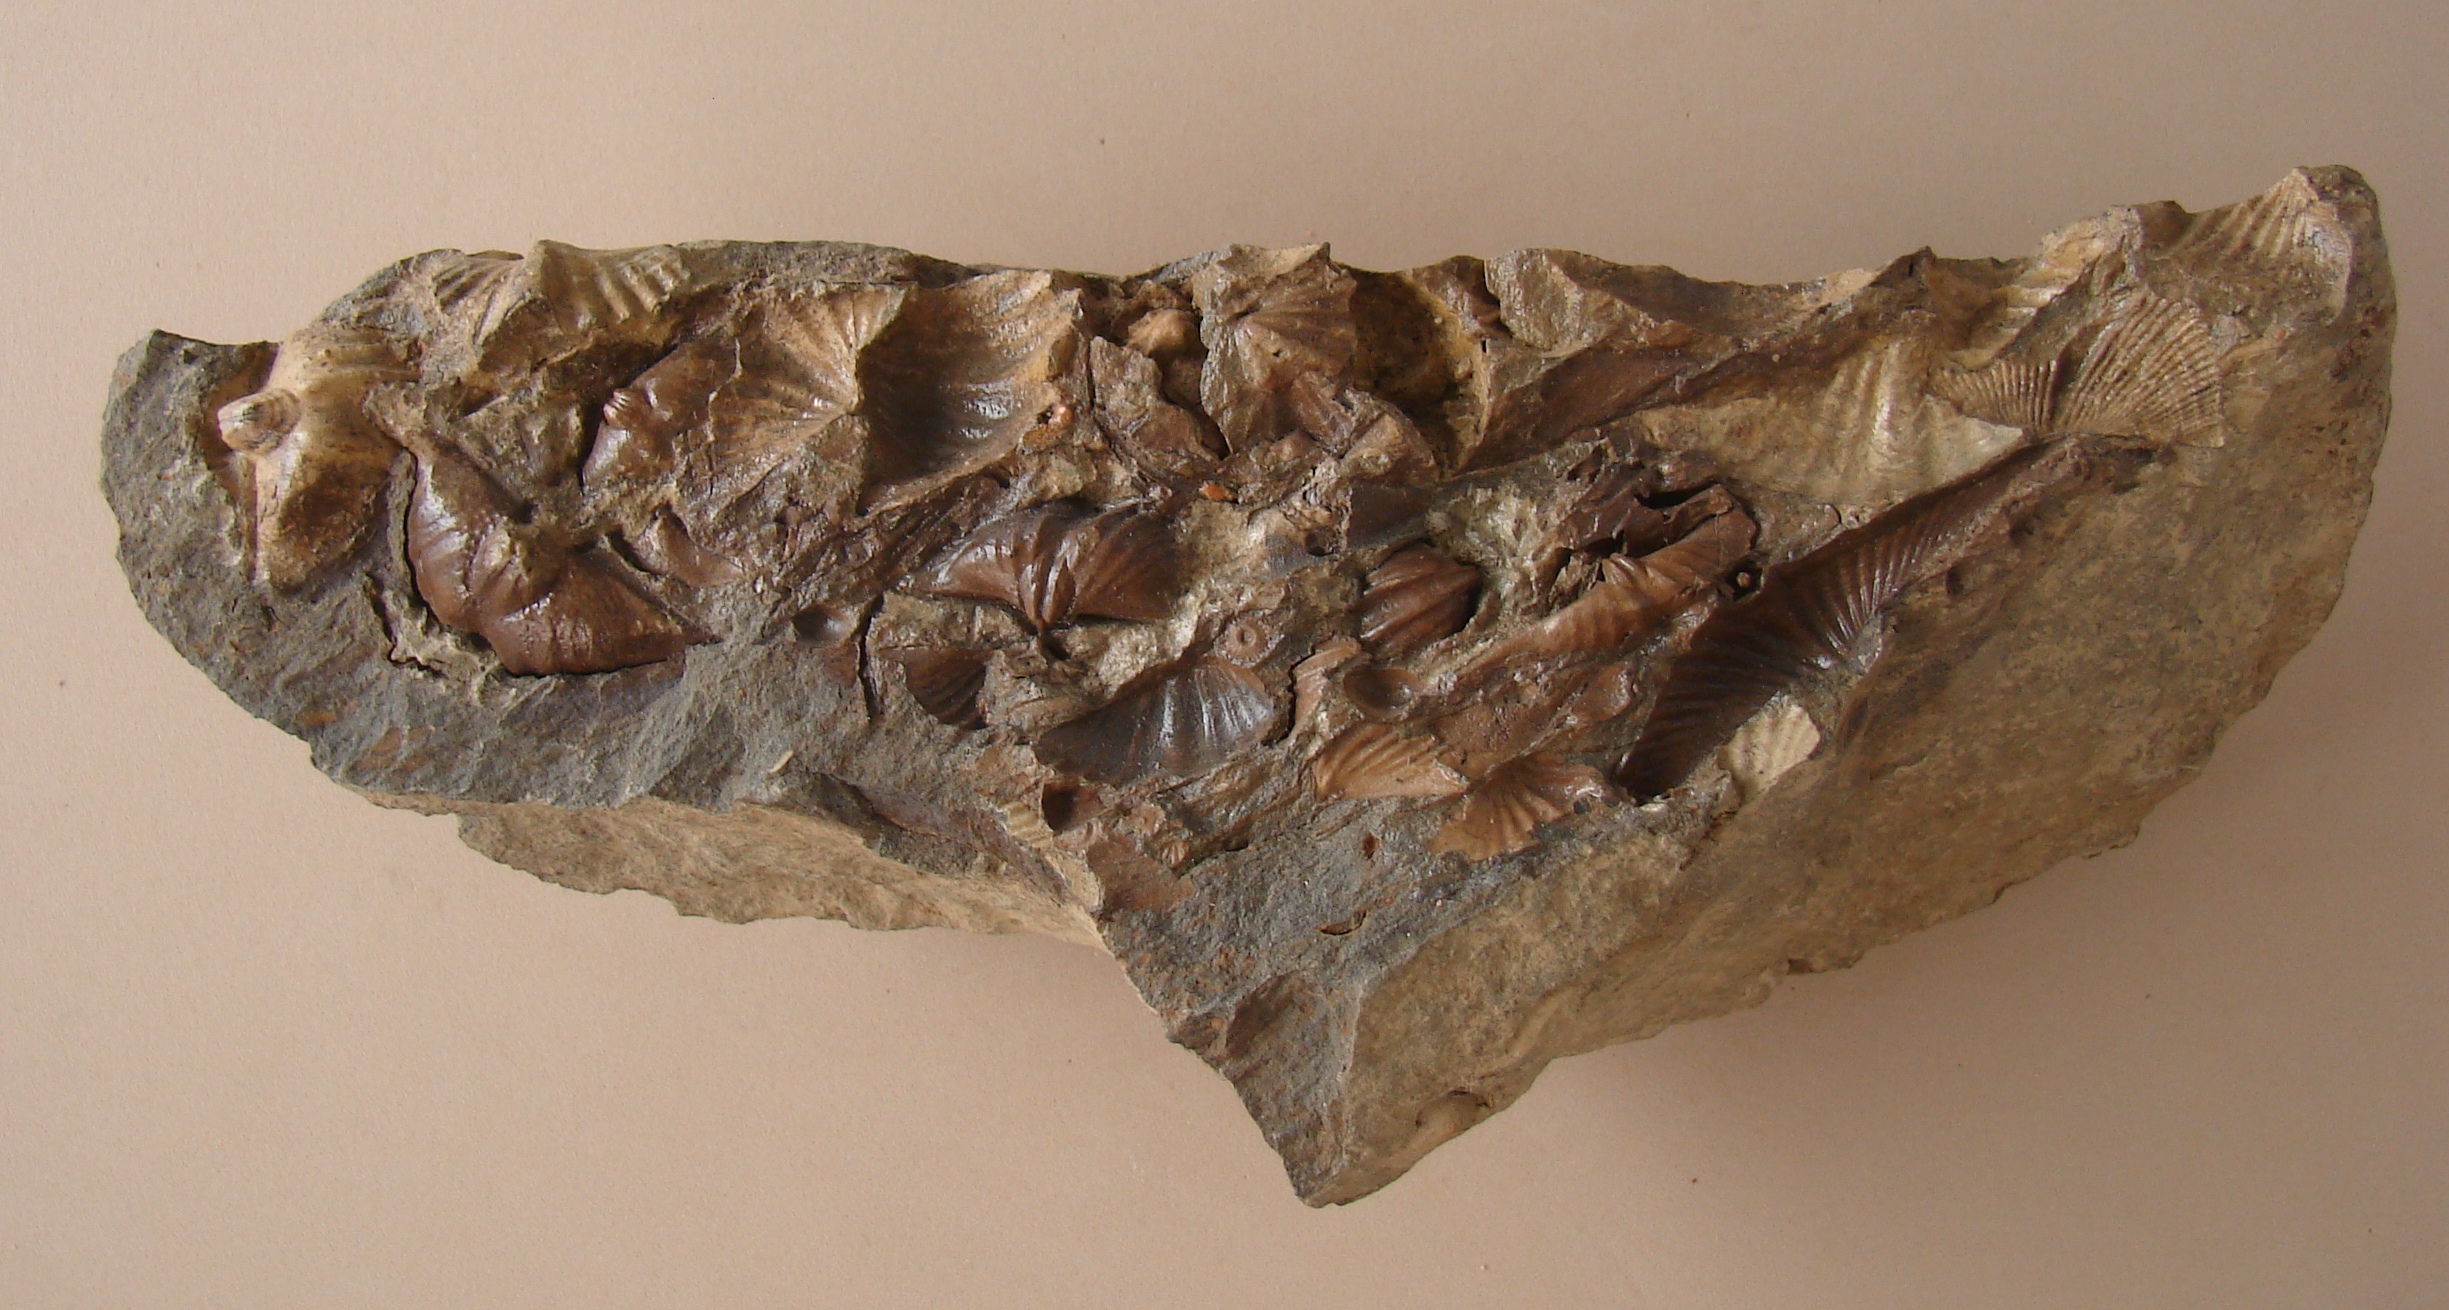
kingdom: Animalia
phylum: Brachiopoda
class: Rhynchonellata
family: Hysterolitidae
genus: Arduspirifer
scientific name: Arduspirifer Spirifer arduennensis
